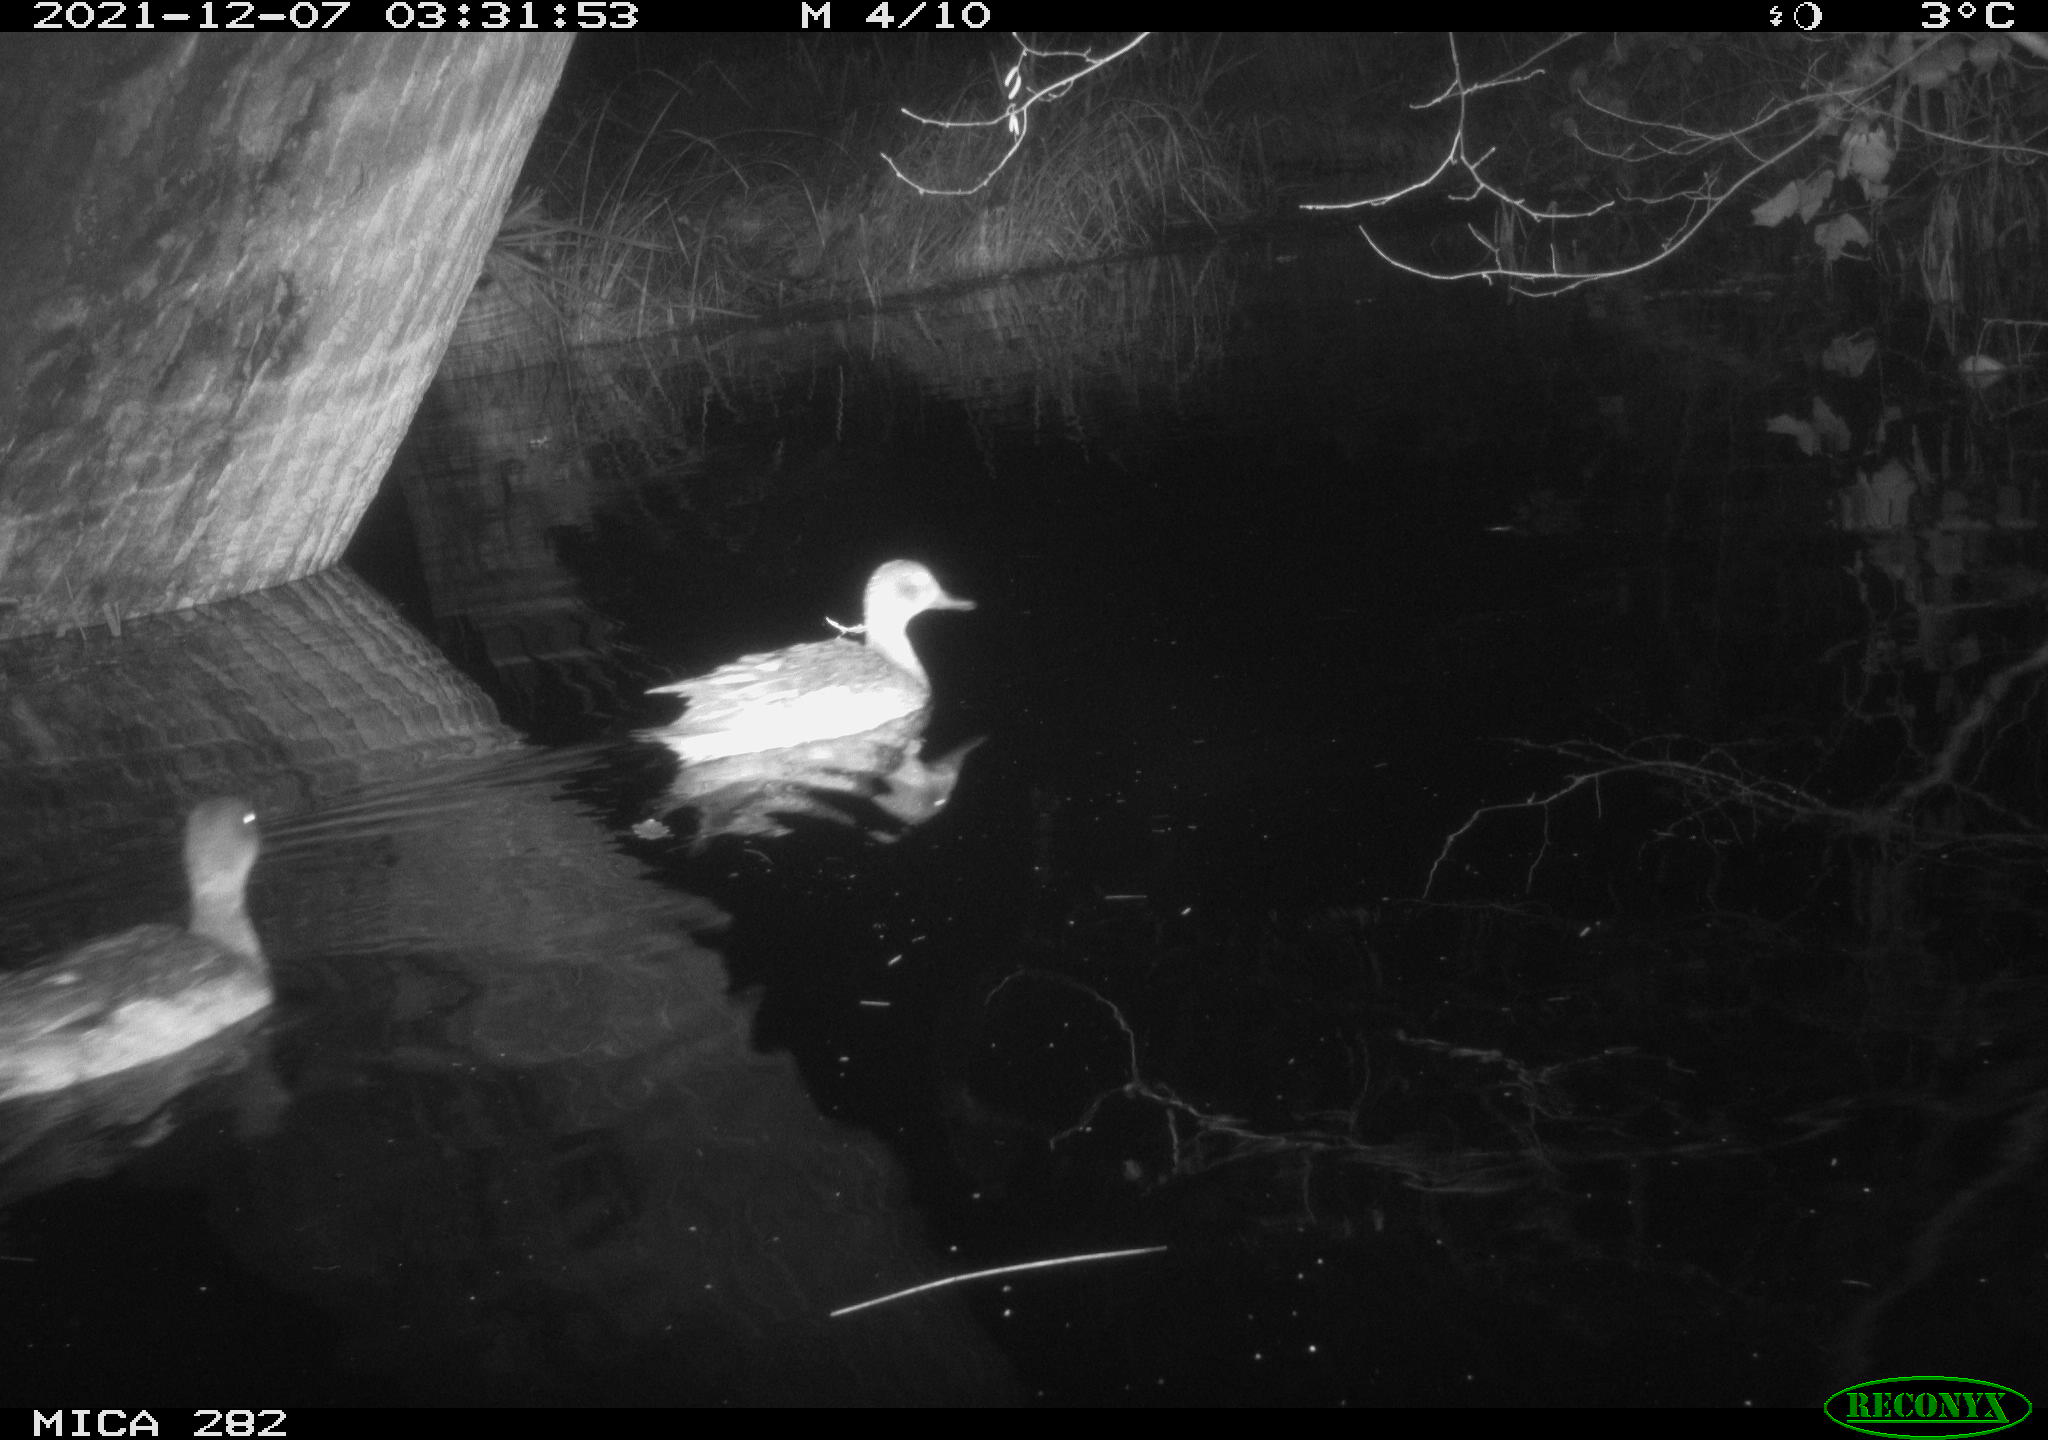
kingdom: Animalia
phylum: Chordata
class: Aves
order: Anseriformes
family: Anatidae
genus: Anas
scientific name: Anas platyrhynchos
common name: Mallard
